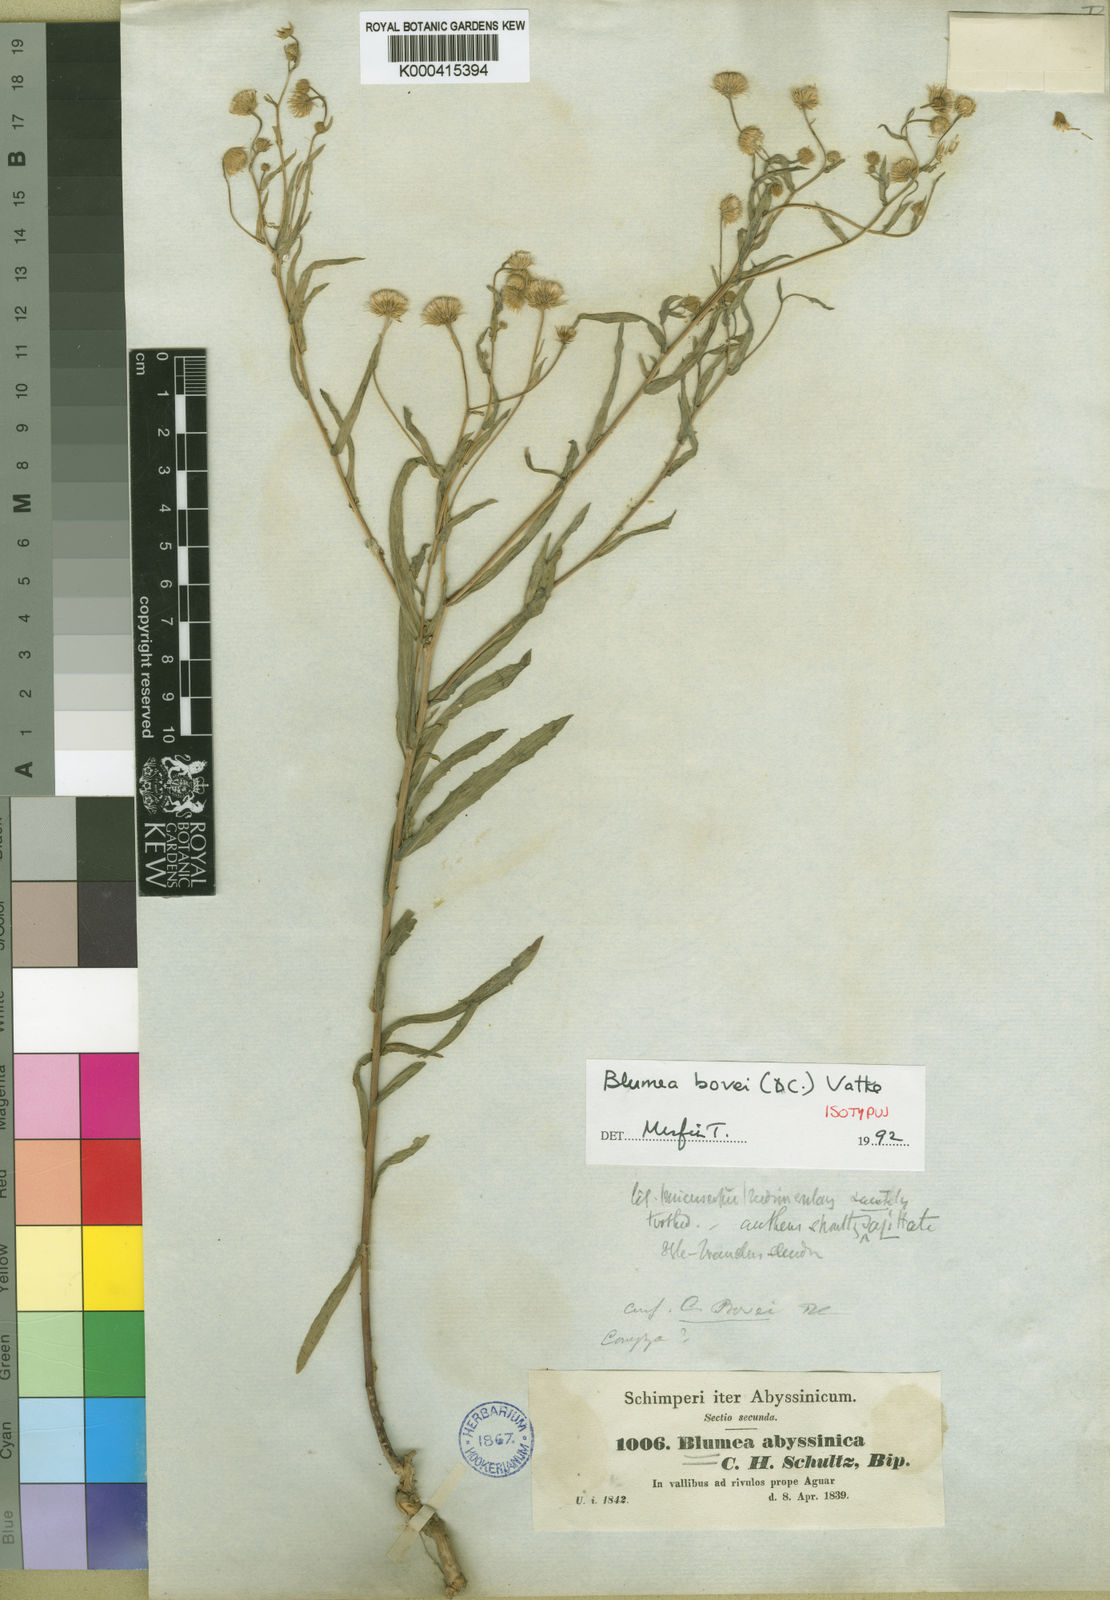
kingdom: Plantae
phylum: Tracheophyta
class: Magnoliopsida
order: Asterales
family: Asteraceae
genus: Doellia
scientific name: Doellia bovei
